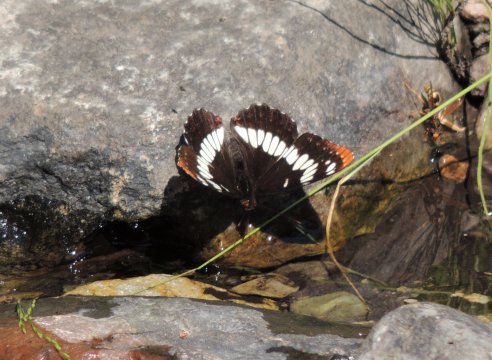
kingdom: Animalia
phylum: Arthropoda
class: Insecta
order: Lepidoptera
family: Nymphalidae
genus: Limenitis
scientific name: Limenitis lorquini
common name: Lorquin's Admiral
